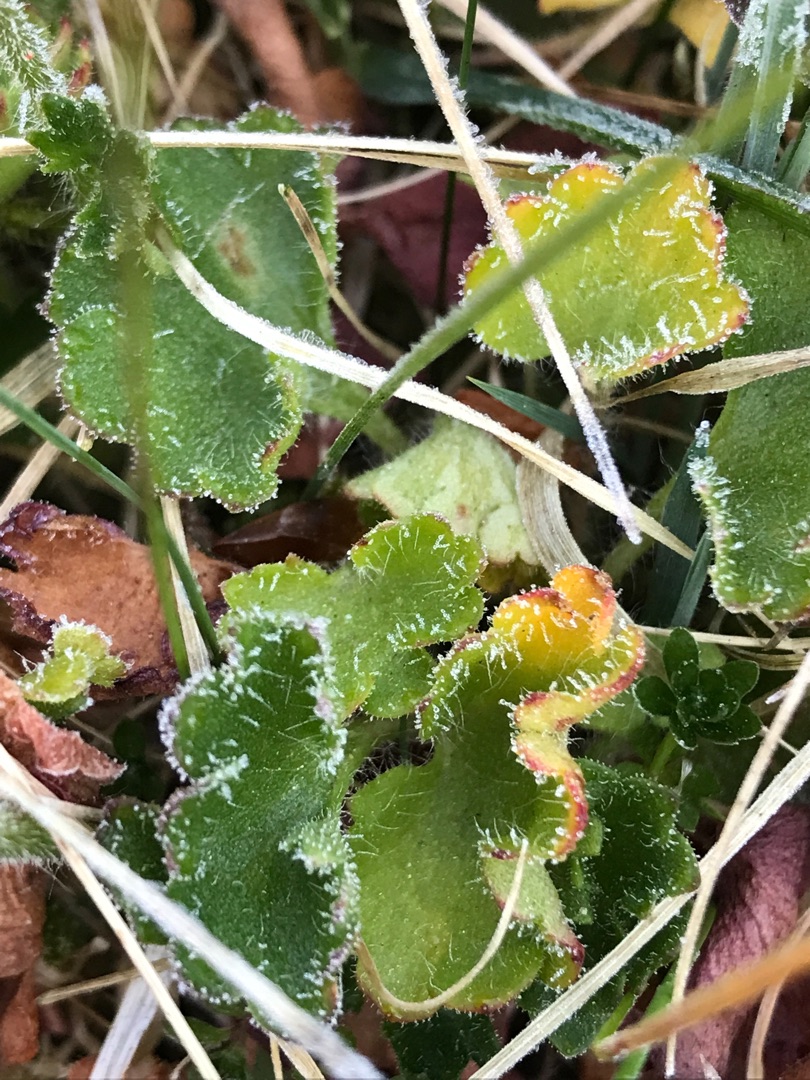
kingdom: Plantae
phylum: Tracheophyta
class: Magnoliopsida
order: Saxifragales
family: Saxifragaceae
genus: Saxifraga
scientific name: Saxifraga granulata
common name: Kornet stenbræk
